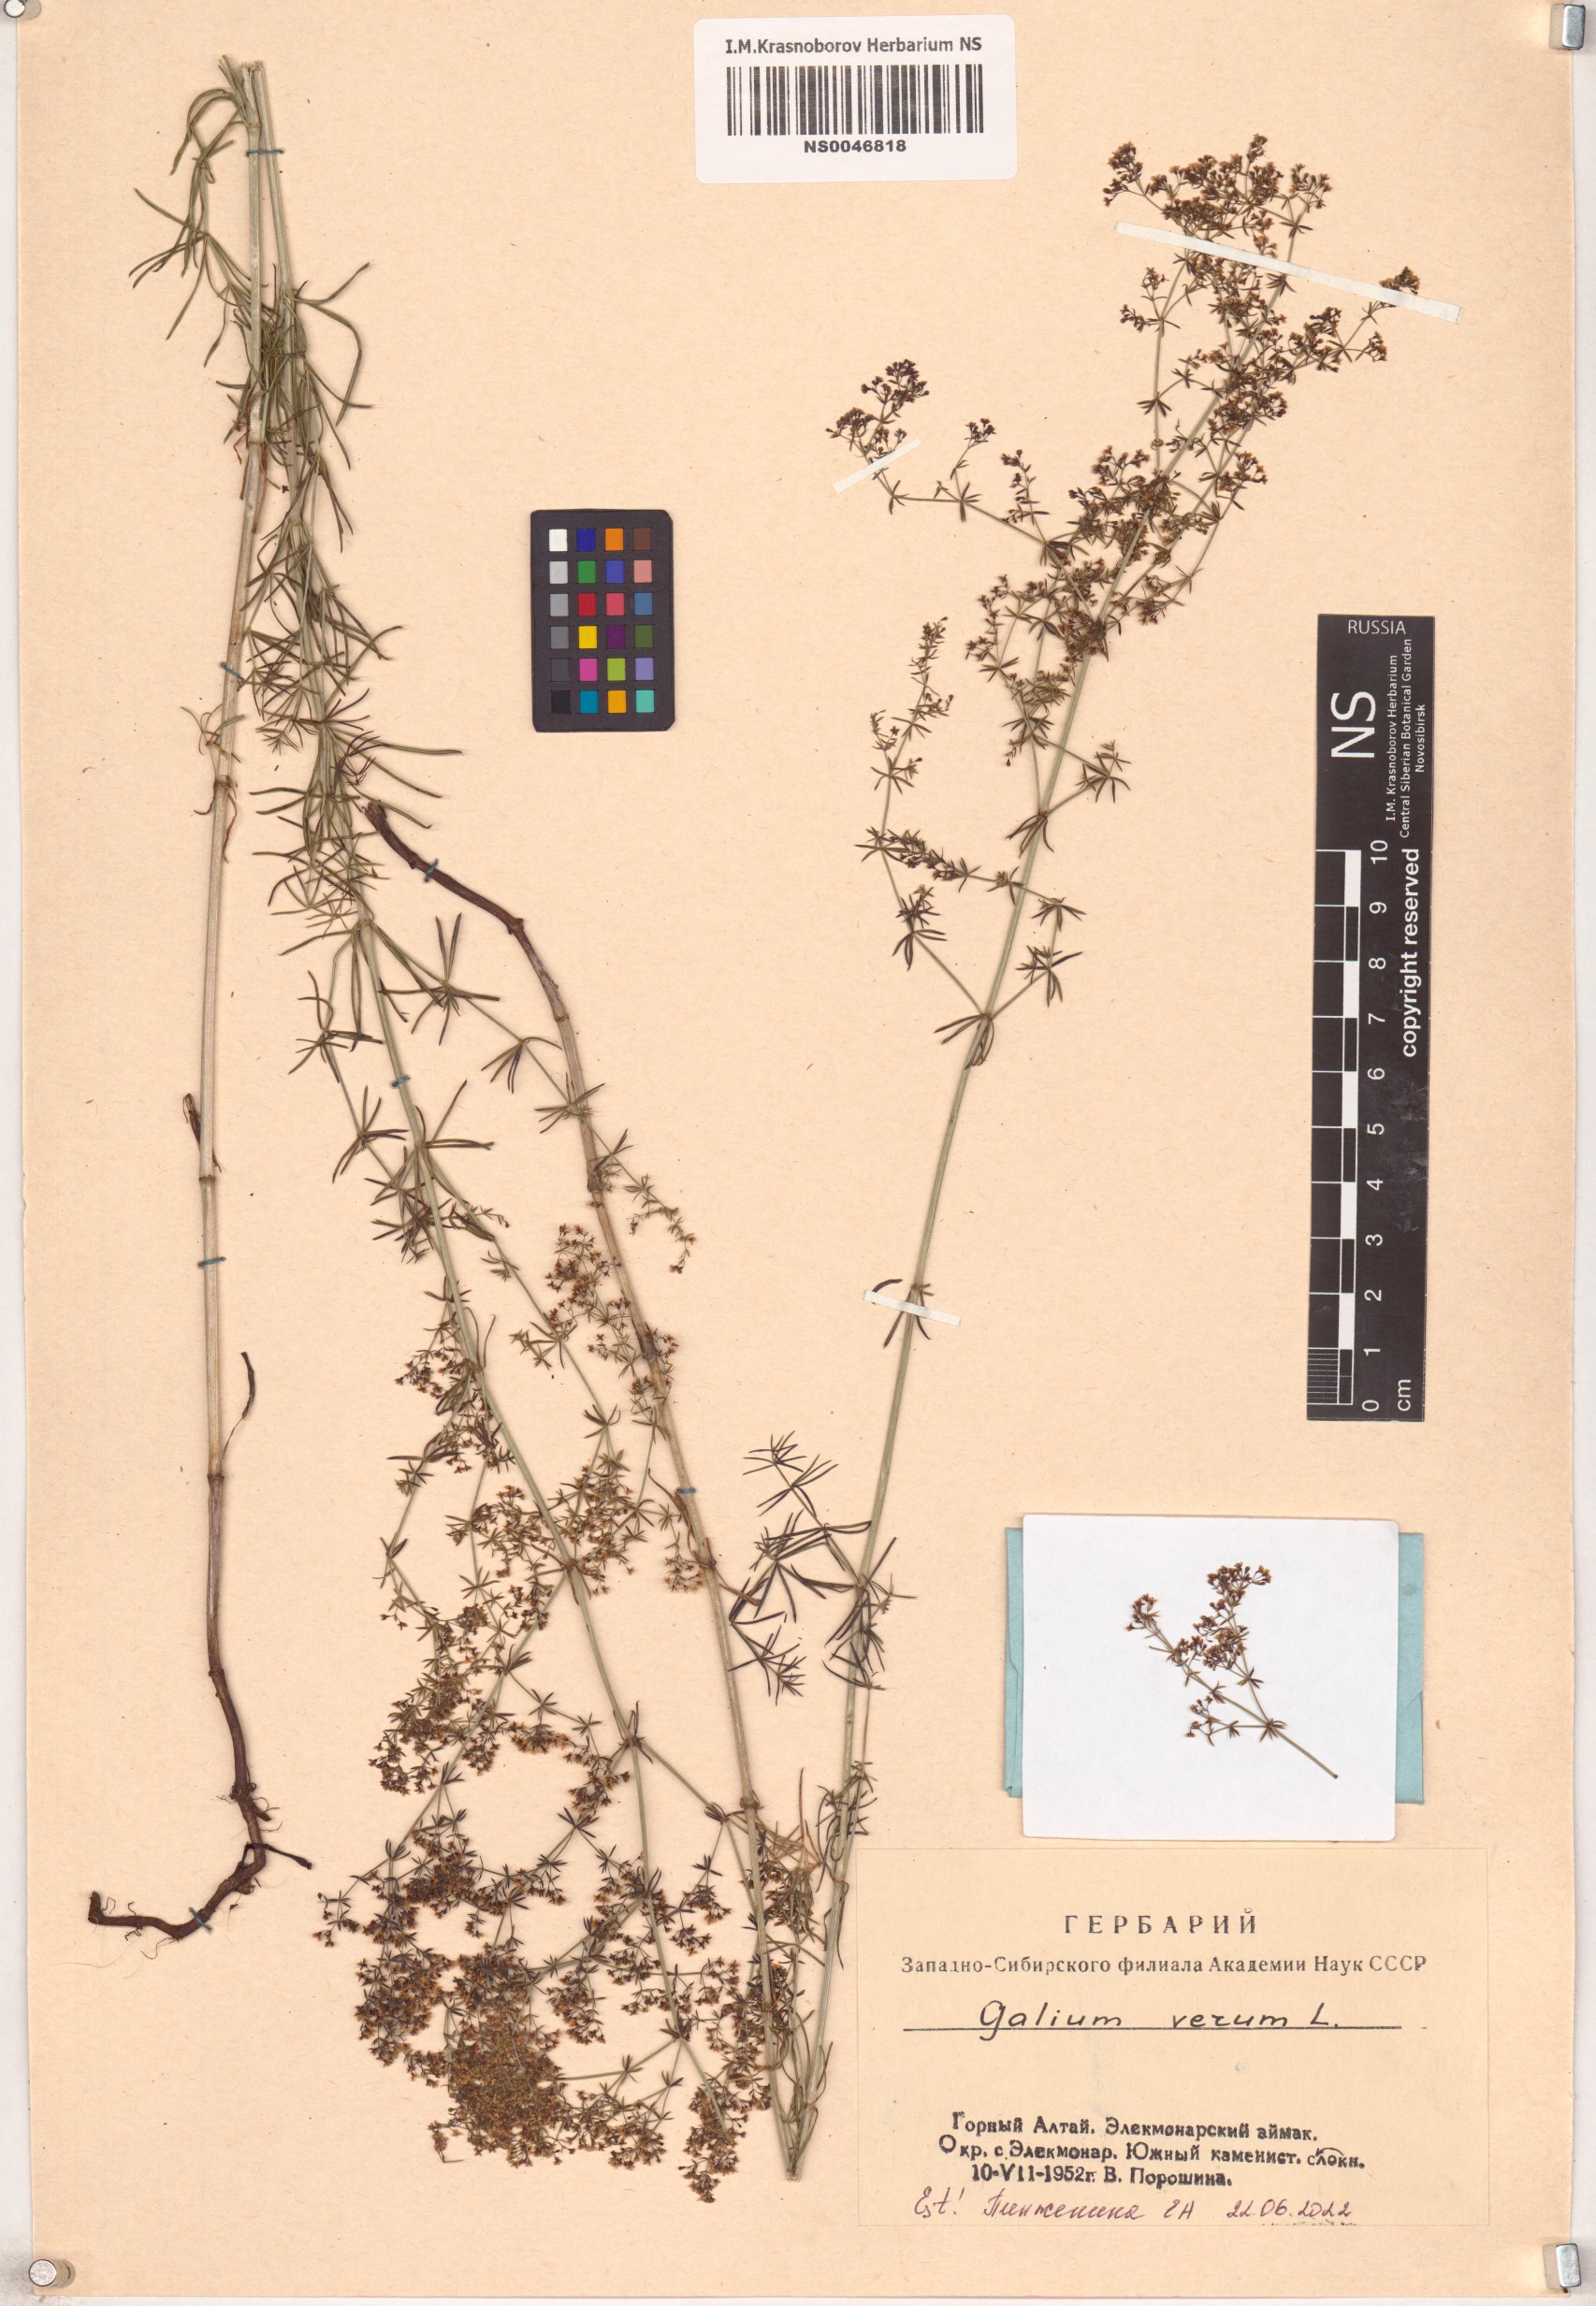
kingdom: Plantae
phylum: Tracheophyta
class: Magnoliopsida
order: Gentianales
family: Rubiaceae
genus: Galium
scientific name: Galium verum
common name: Lady's bedstraw
